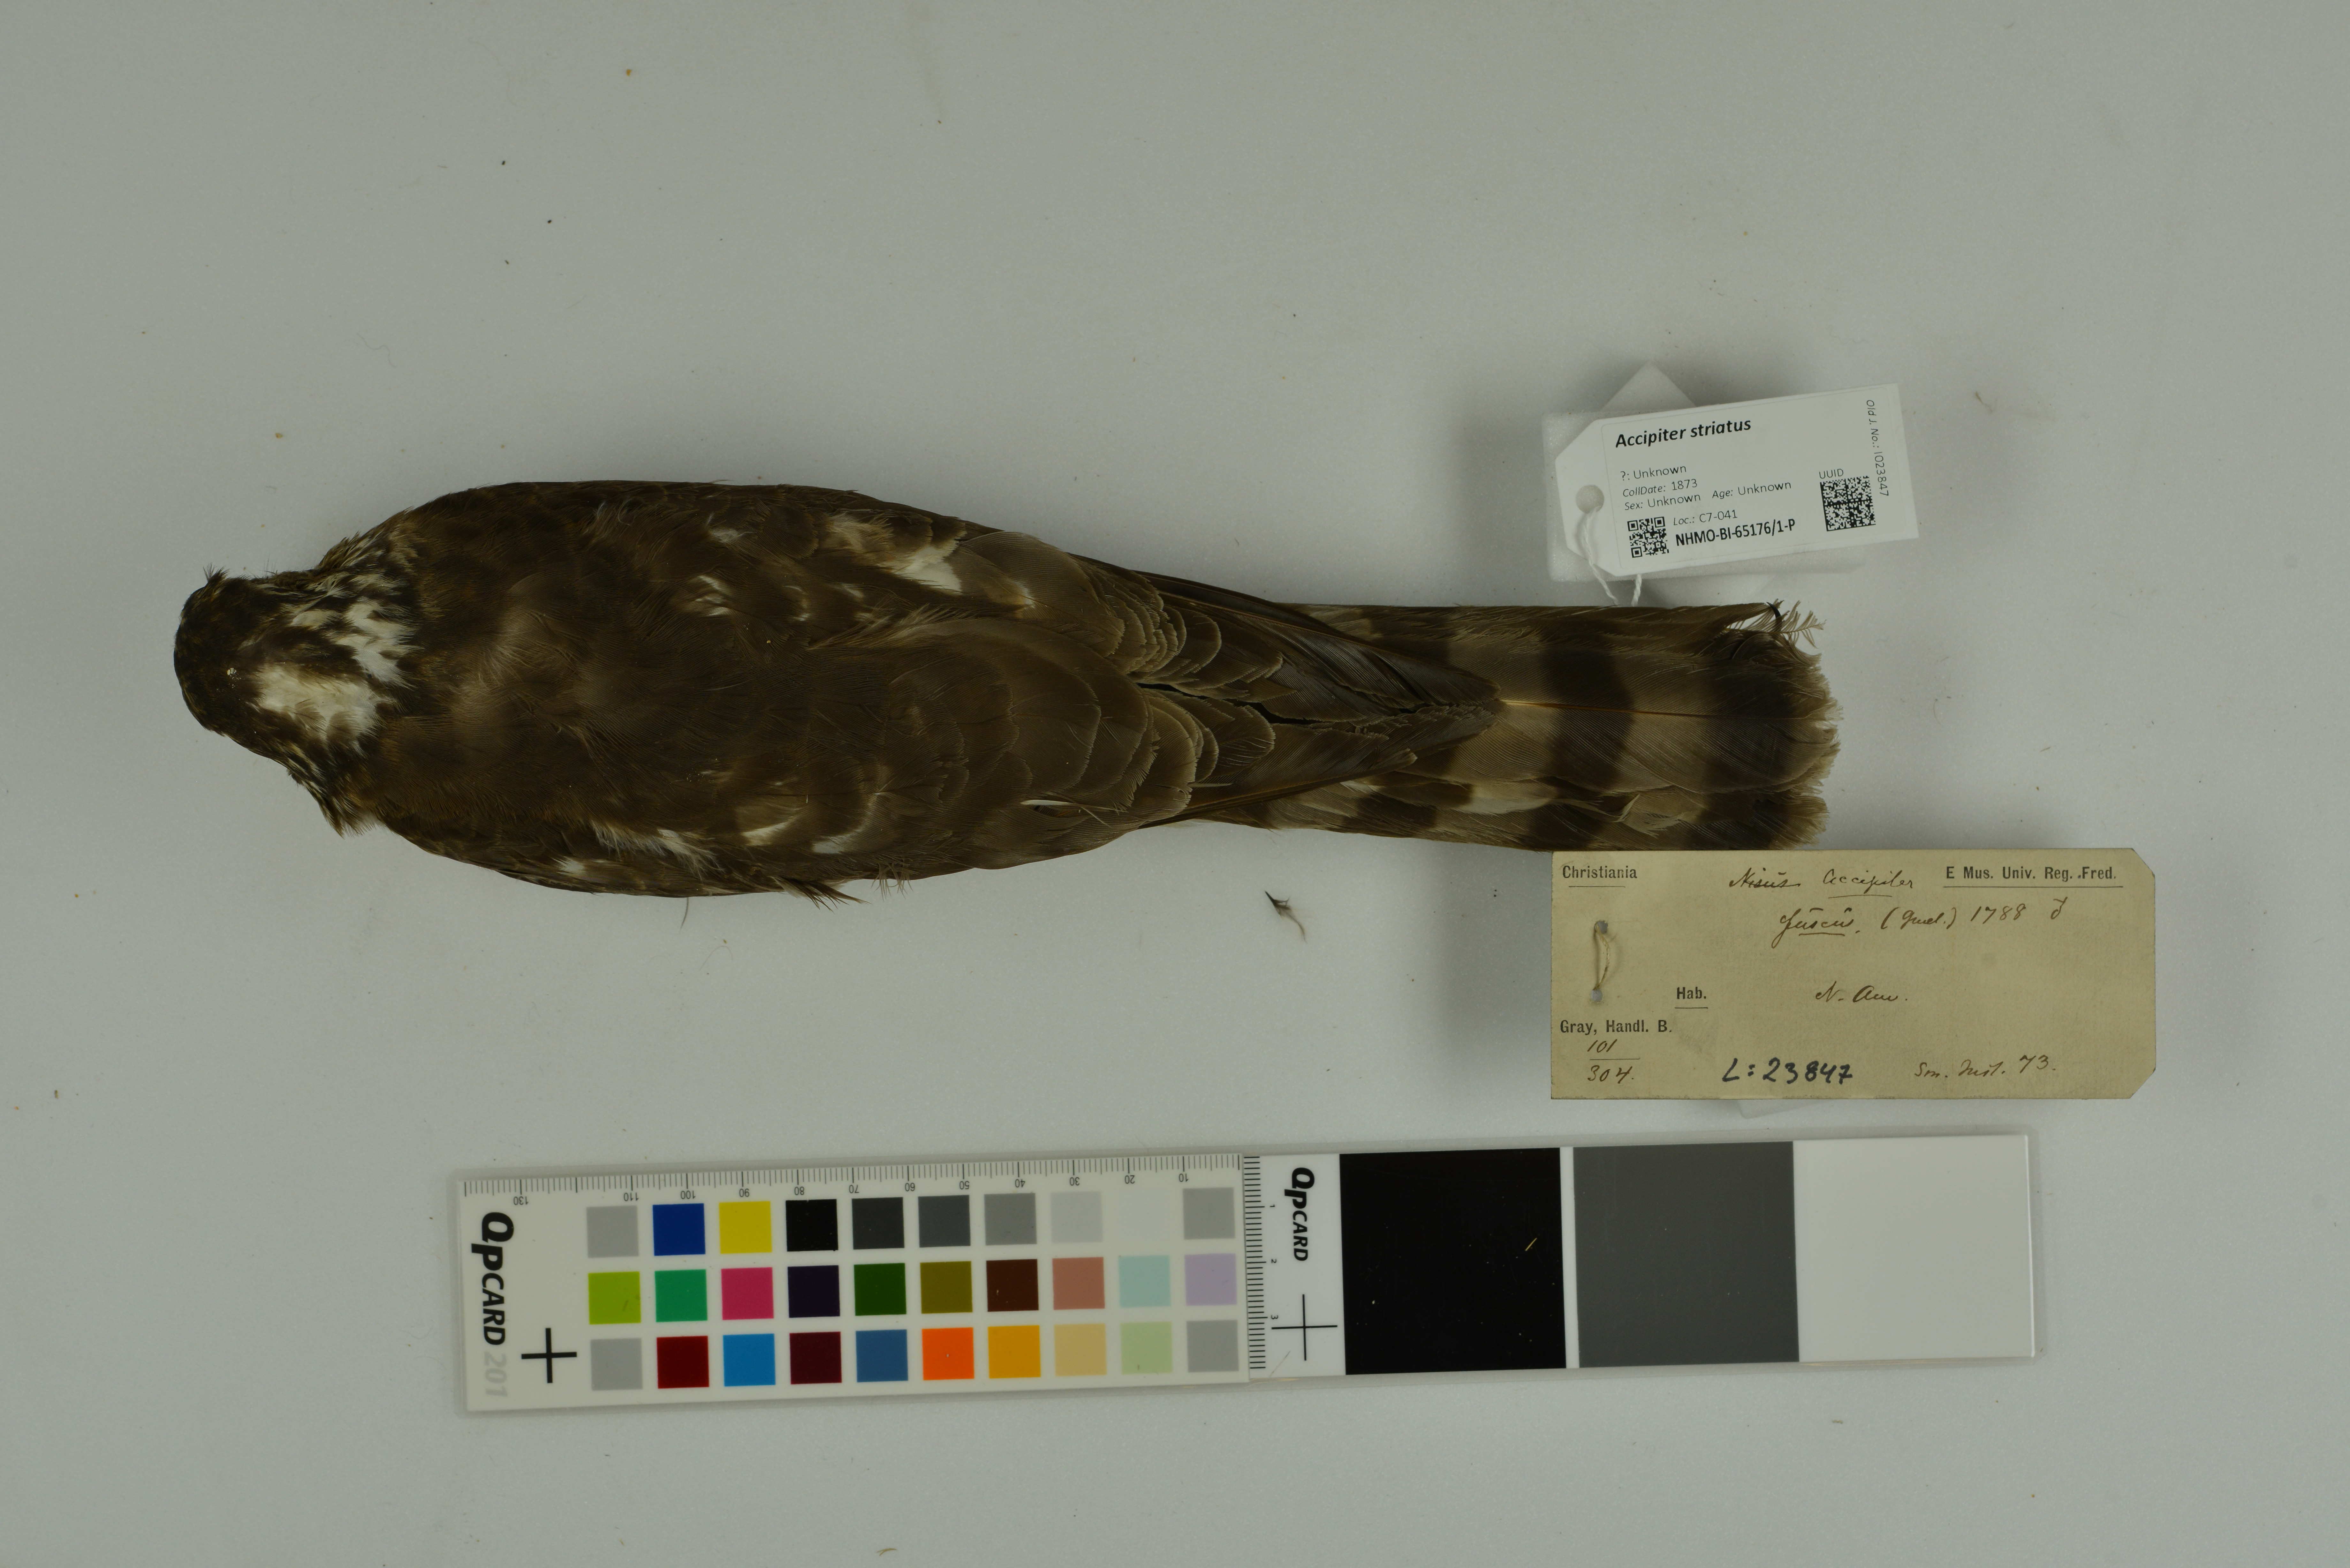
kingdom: Animalia
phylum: Chordata
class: Aves
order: Accipitriformes
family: Accipitridae
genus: Accipiter
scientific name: Accipiter striatus
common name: Sharp-shinned hawk
